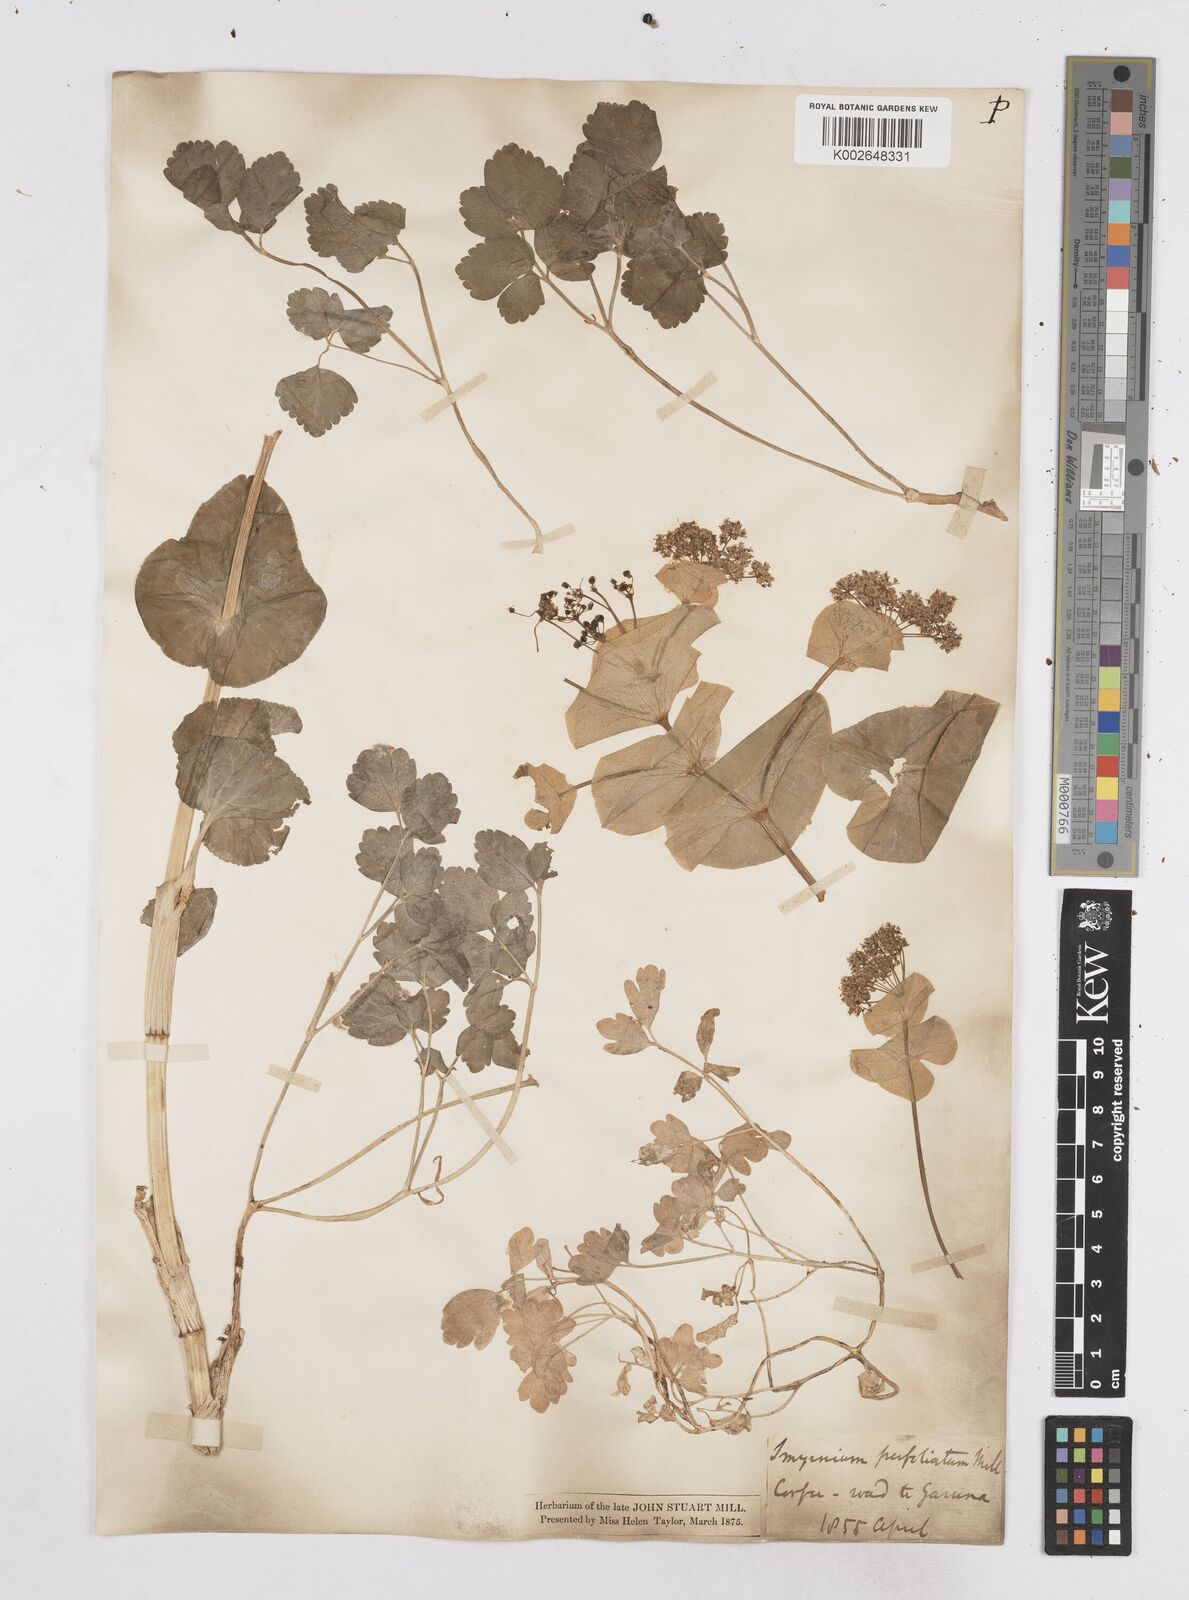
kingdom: Plantae
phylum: Tracheophyta
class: Magnoliopsida
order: Apiales
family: Apiaceae
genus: Smyrnium
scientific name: Smyrnium perfoliatum
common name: Perfoliate alexanders
